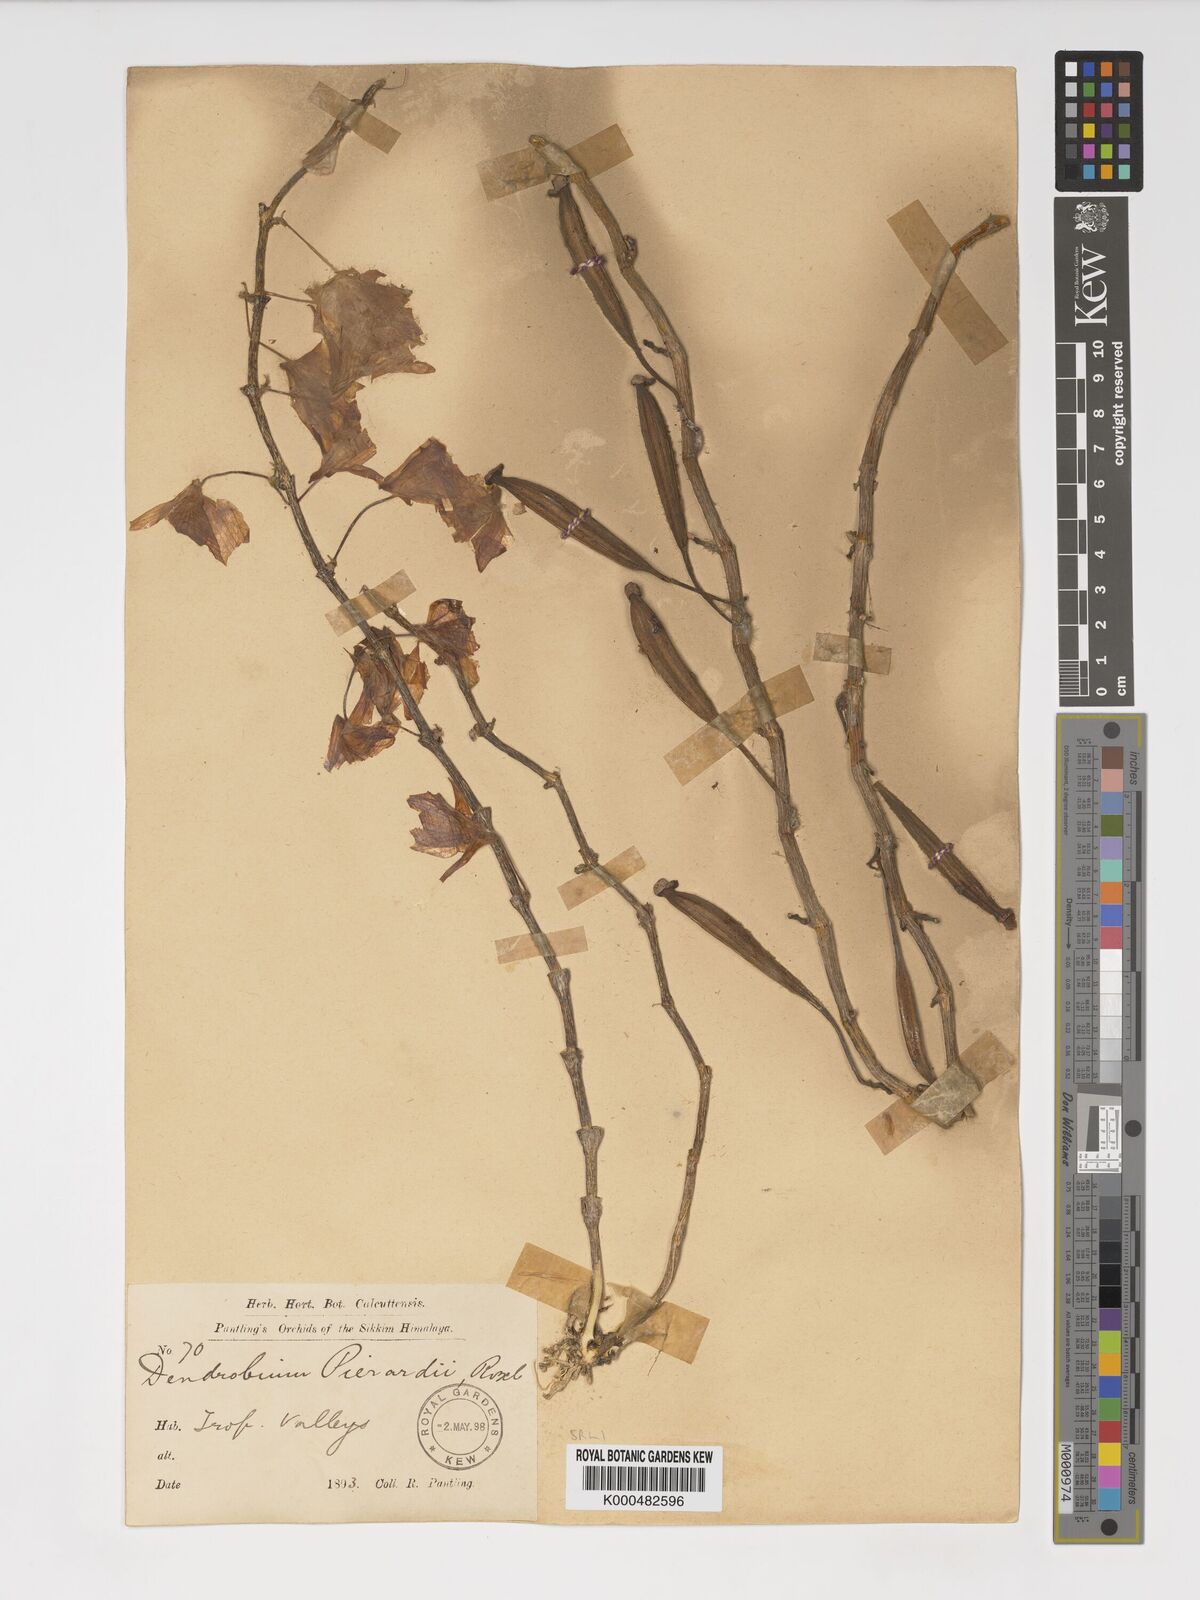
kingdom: Plantae
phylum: Tracheophyta
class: Liliopsida
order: Asparagales
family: Orchidaceae
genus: Dendrobium
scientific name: Dendrobium macrostachyum
